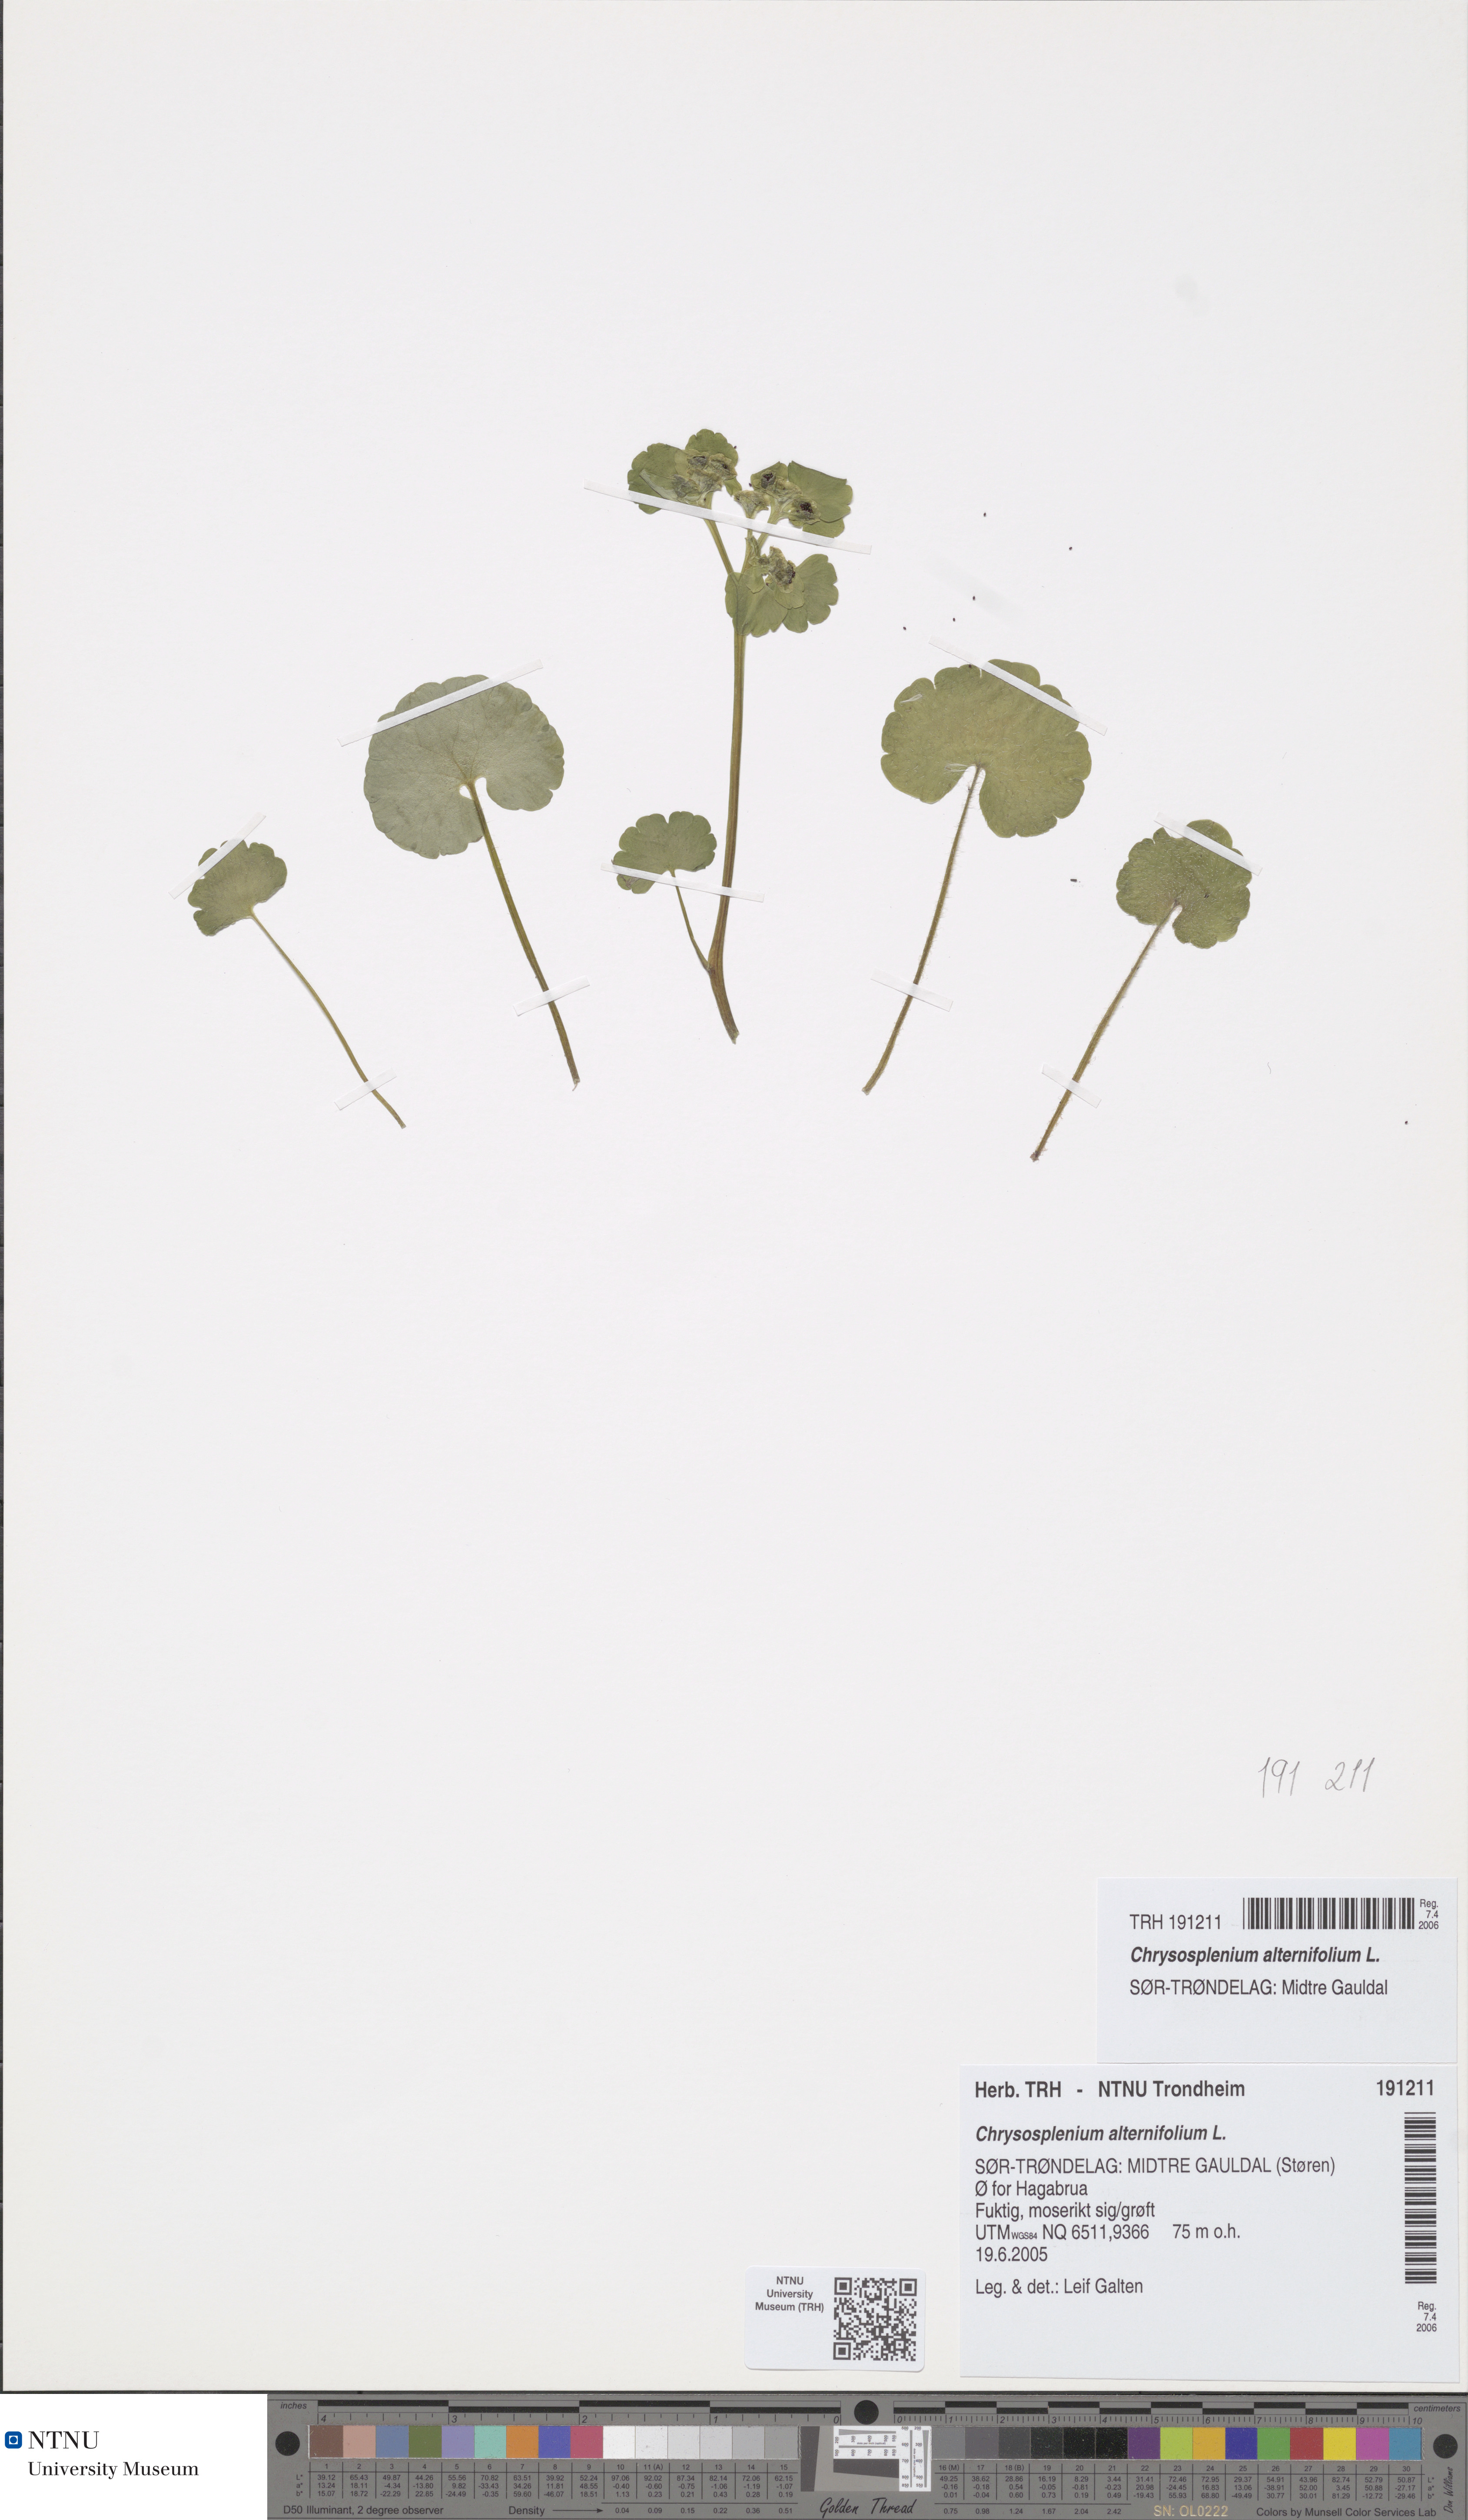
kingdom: Plantae
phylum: Tracheophyta
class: Magnoliopsida
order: Saxifragales
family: Saxifragaceae
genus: Chrysosplenium
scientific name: Chrysosplenium alternifolium
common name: Alternate-leaved golden-saxifrage
